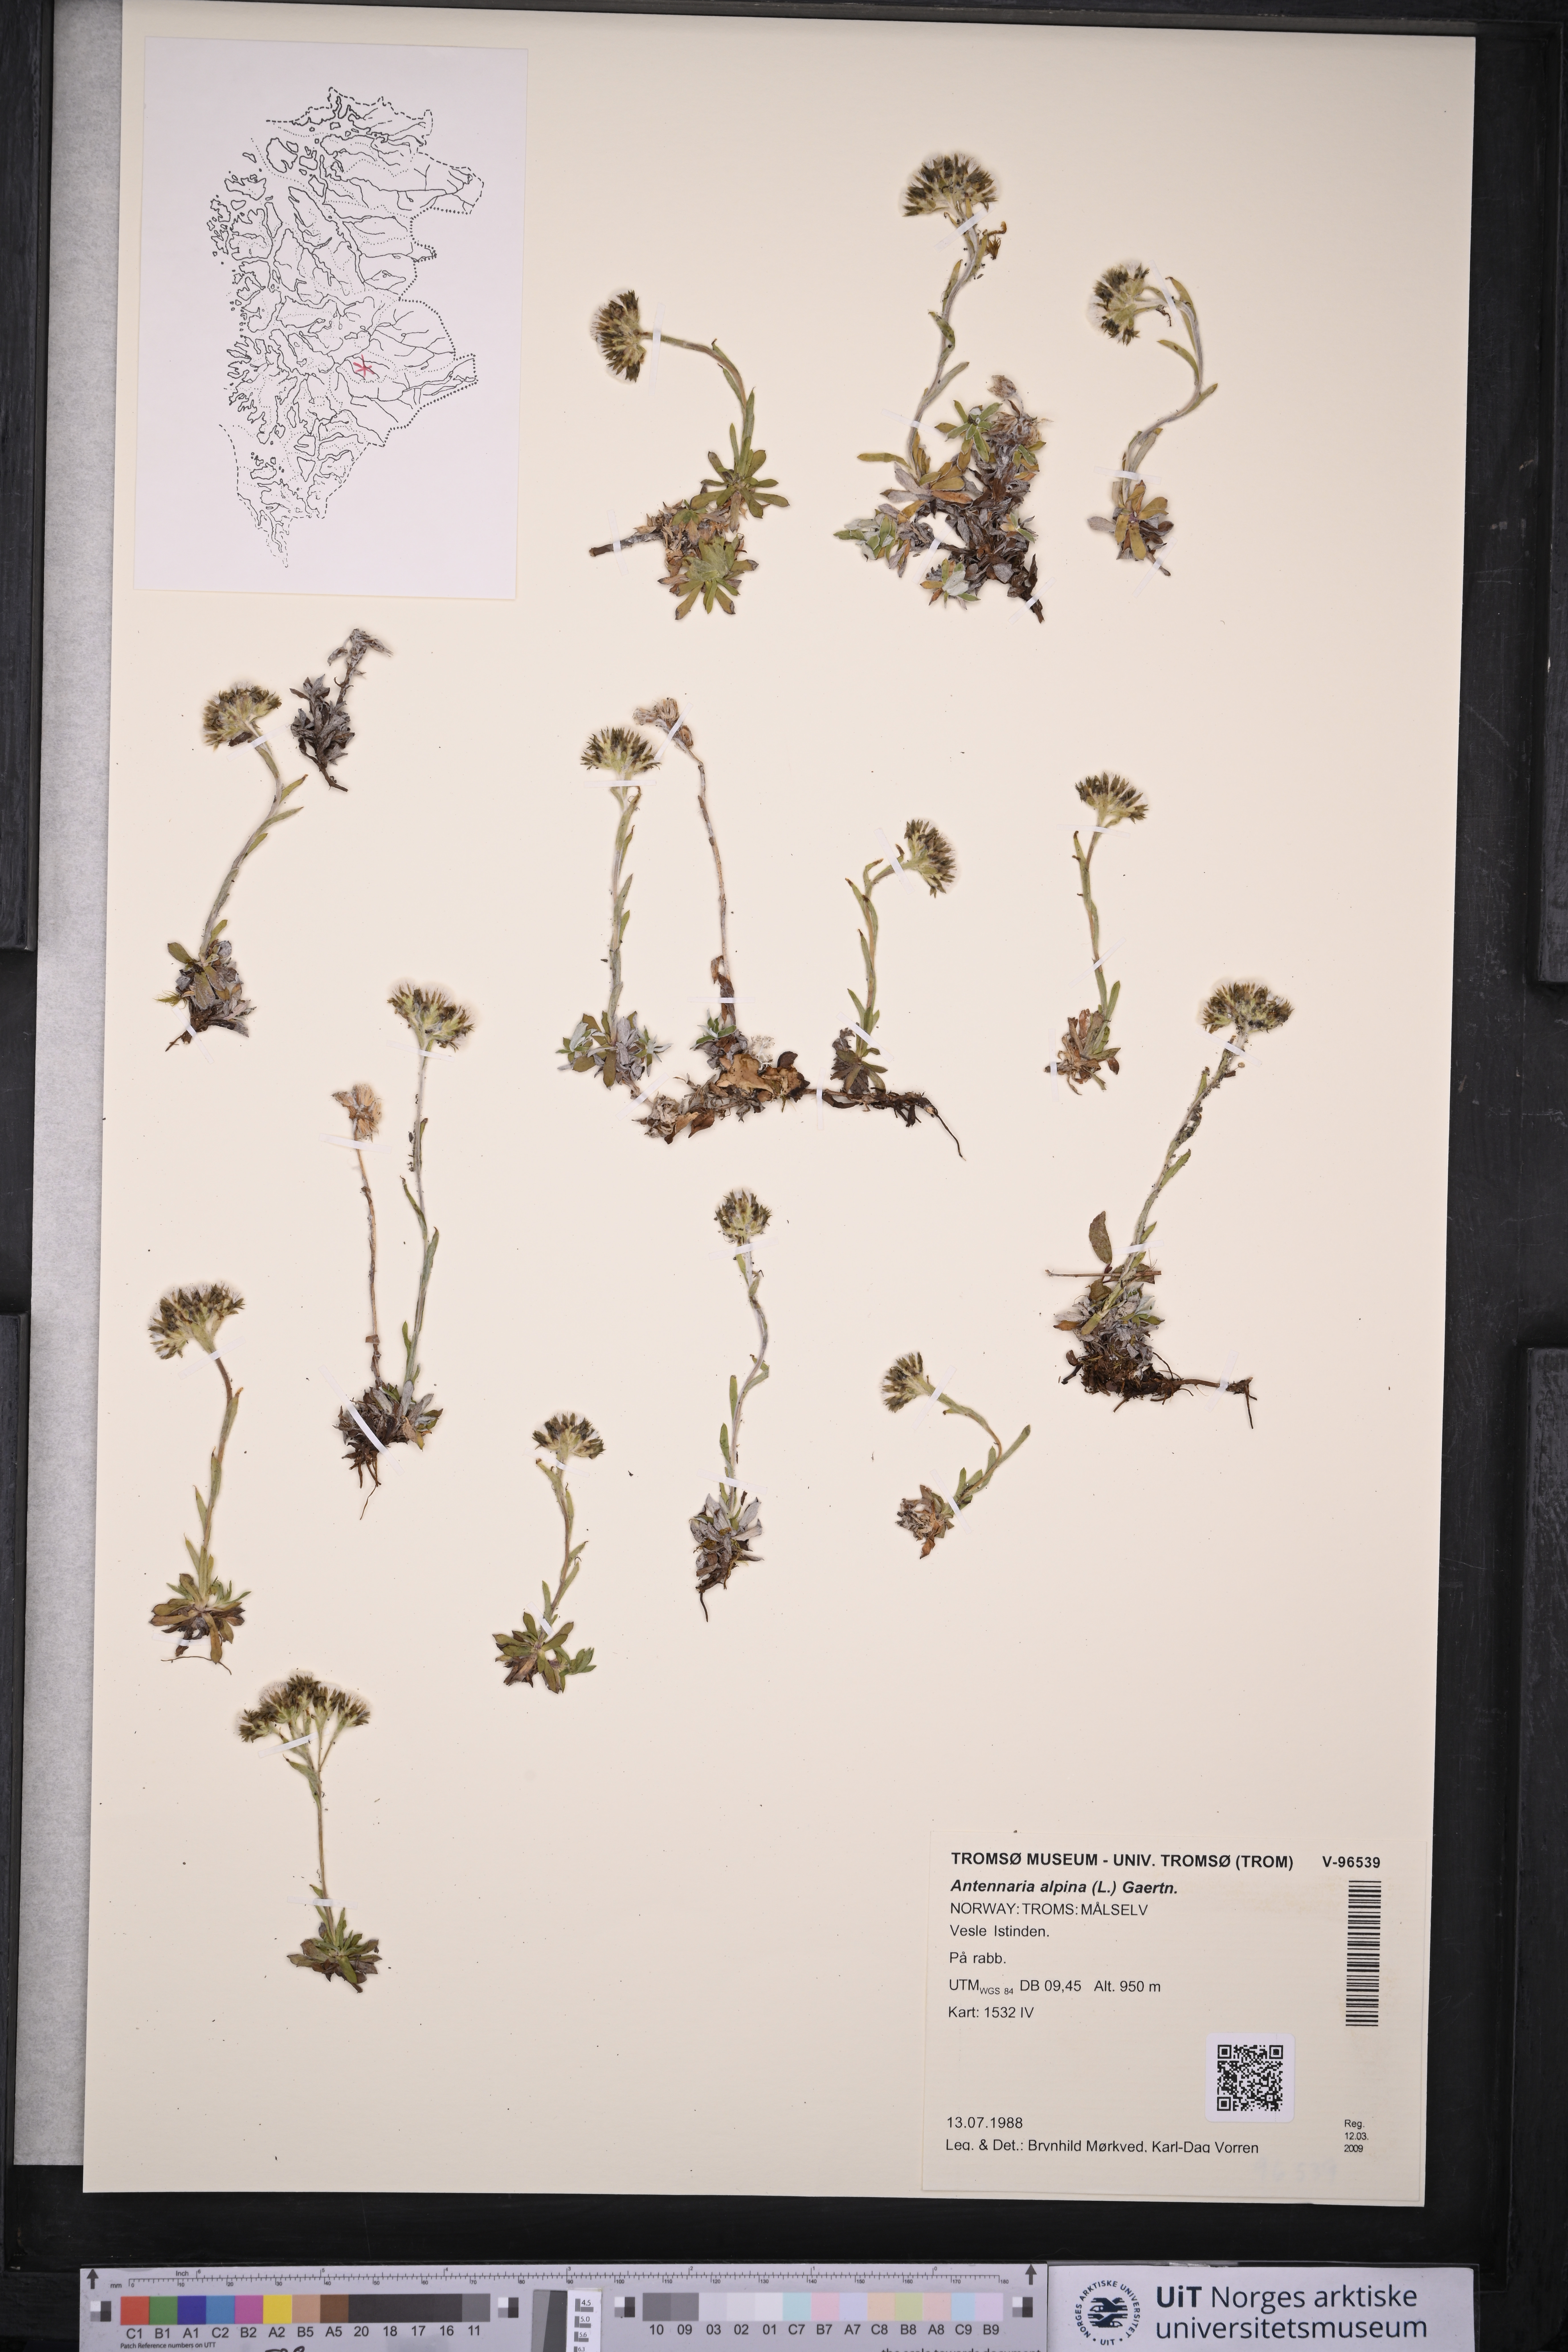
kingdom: Plantae
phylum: Tracheophyta
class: Magnoliopsida
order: Asterales
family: Asteraceae
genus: Antennaria
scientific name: Antennaria alpina
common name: Alpine pussytoes
